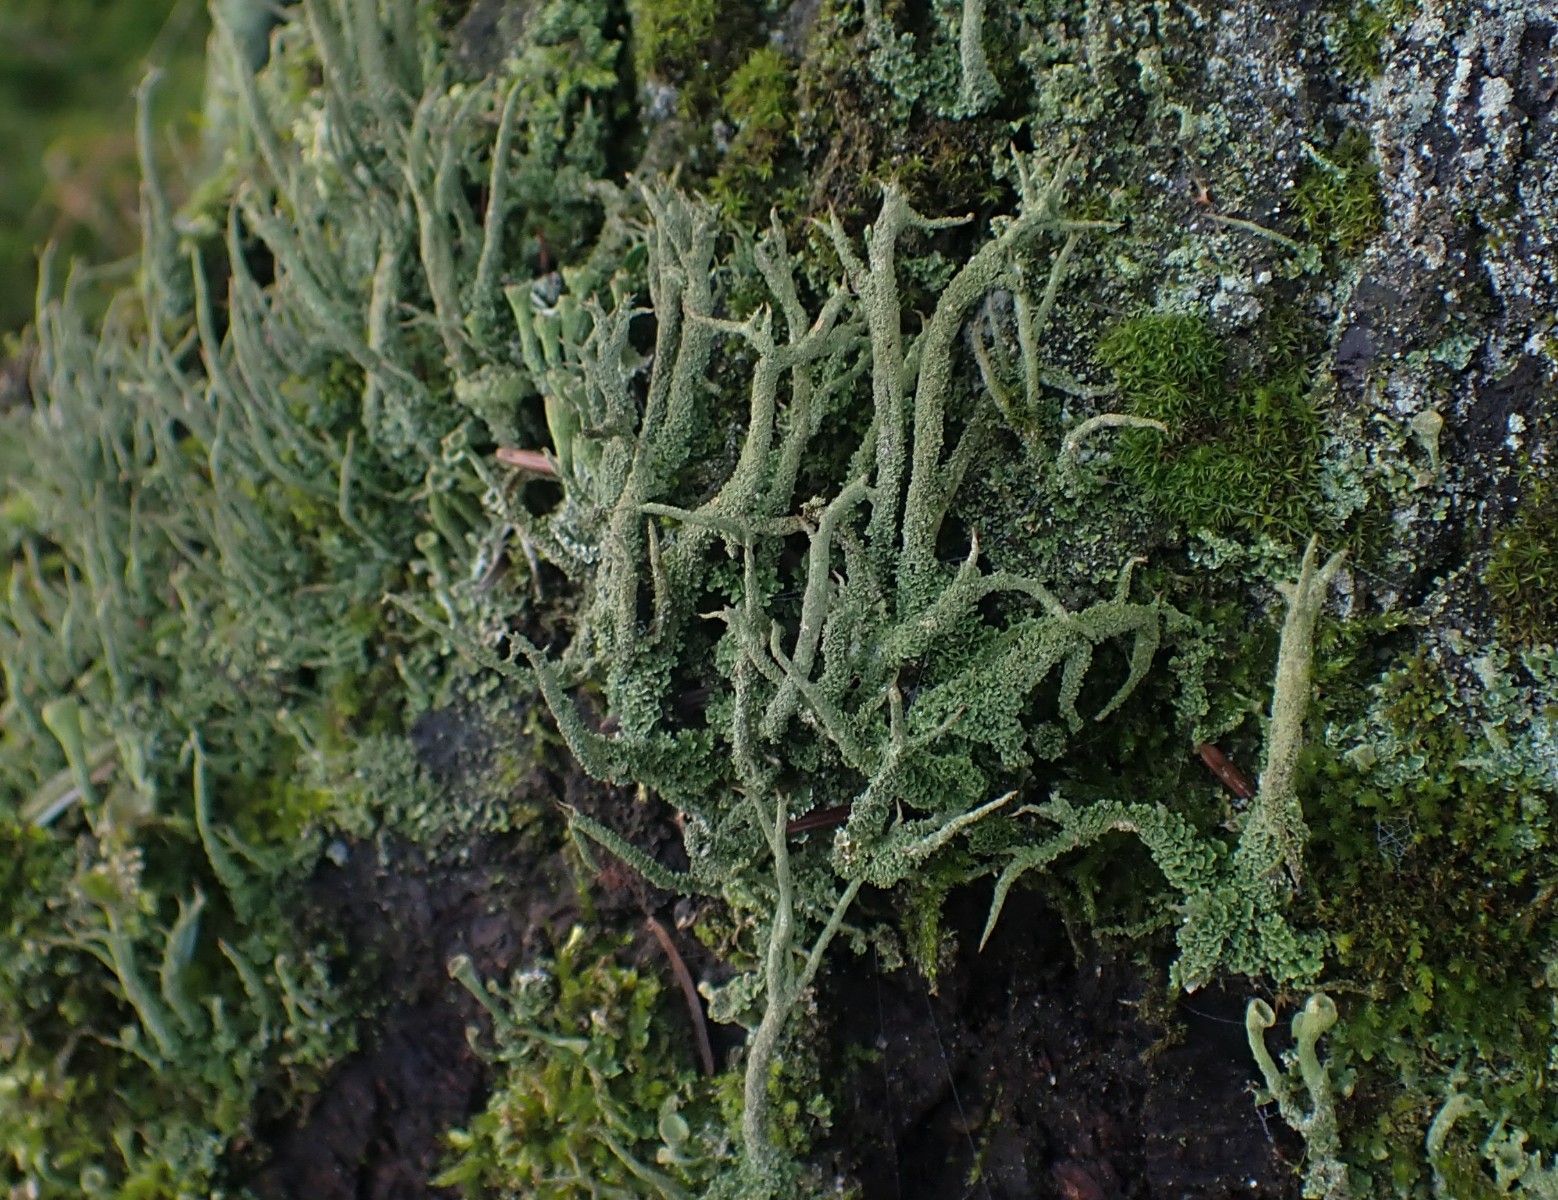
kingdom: Fungi
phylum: Ascomycota
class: Lecanoromycetes
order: Lecanorales
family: Cladoniaceae
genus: Cladonia
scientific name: Cladonia glauca
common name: grågrøn bægerlav
